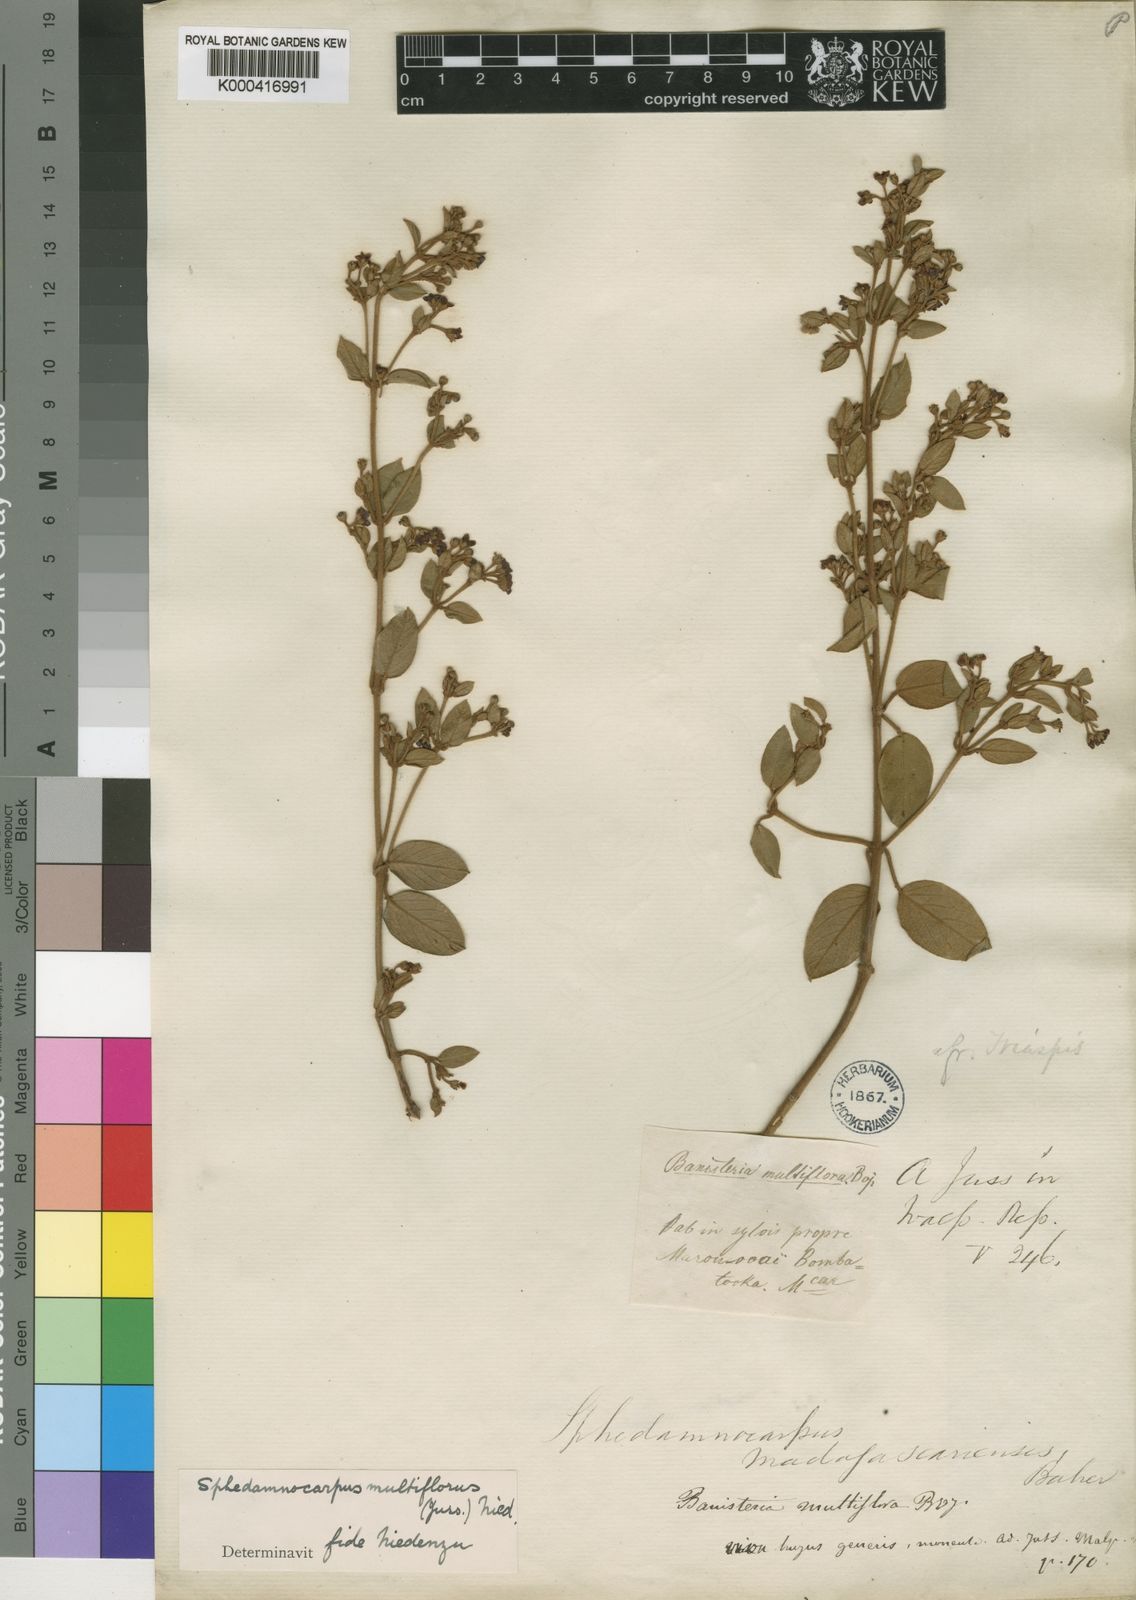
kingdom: Plantae
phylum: Tracheophyta
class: Magnoliopsida
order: Malpighiales
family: Malpighiaceae
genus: Sphedamnocarpus
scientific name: Sphedamnocarpus multiflorus
